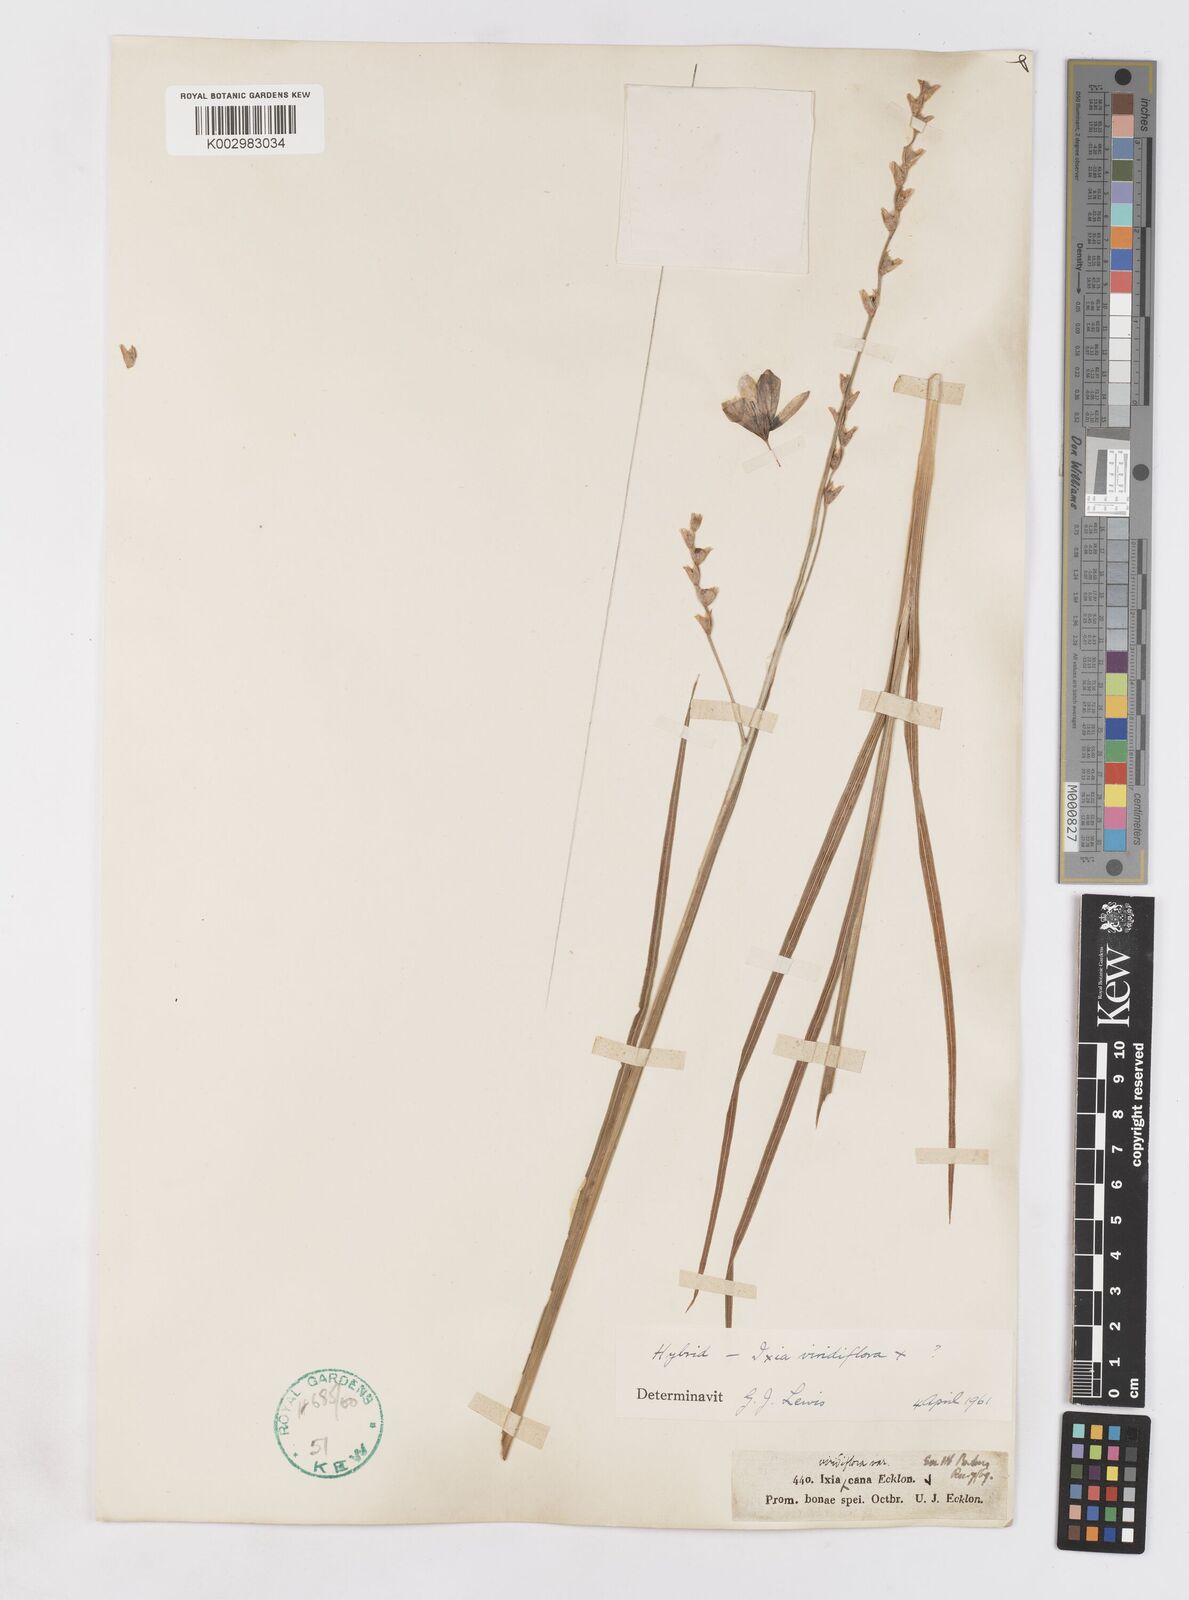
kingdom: Plantae
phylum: Tracheophyta
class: Liliopsida
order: Asparagales
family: Iridaceae
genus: Ixia
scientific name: Ixia polystachya
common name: White-and-yellow-flower cornlily
